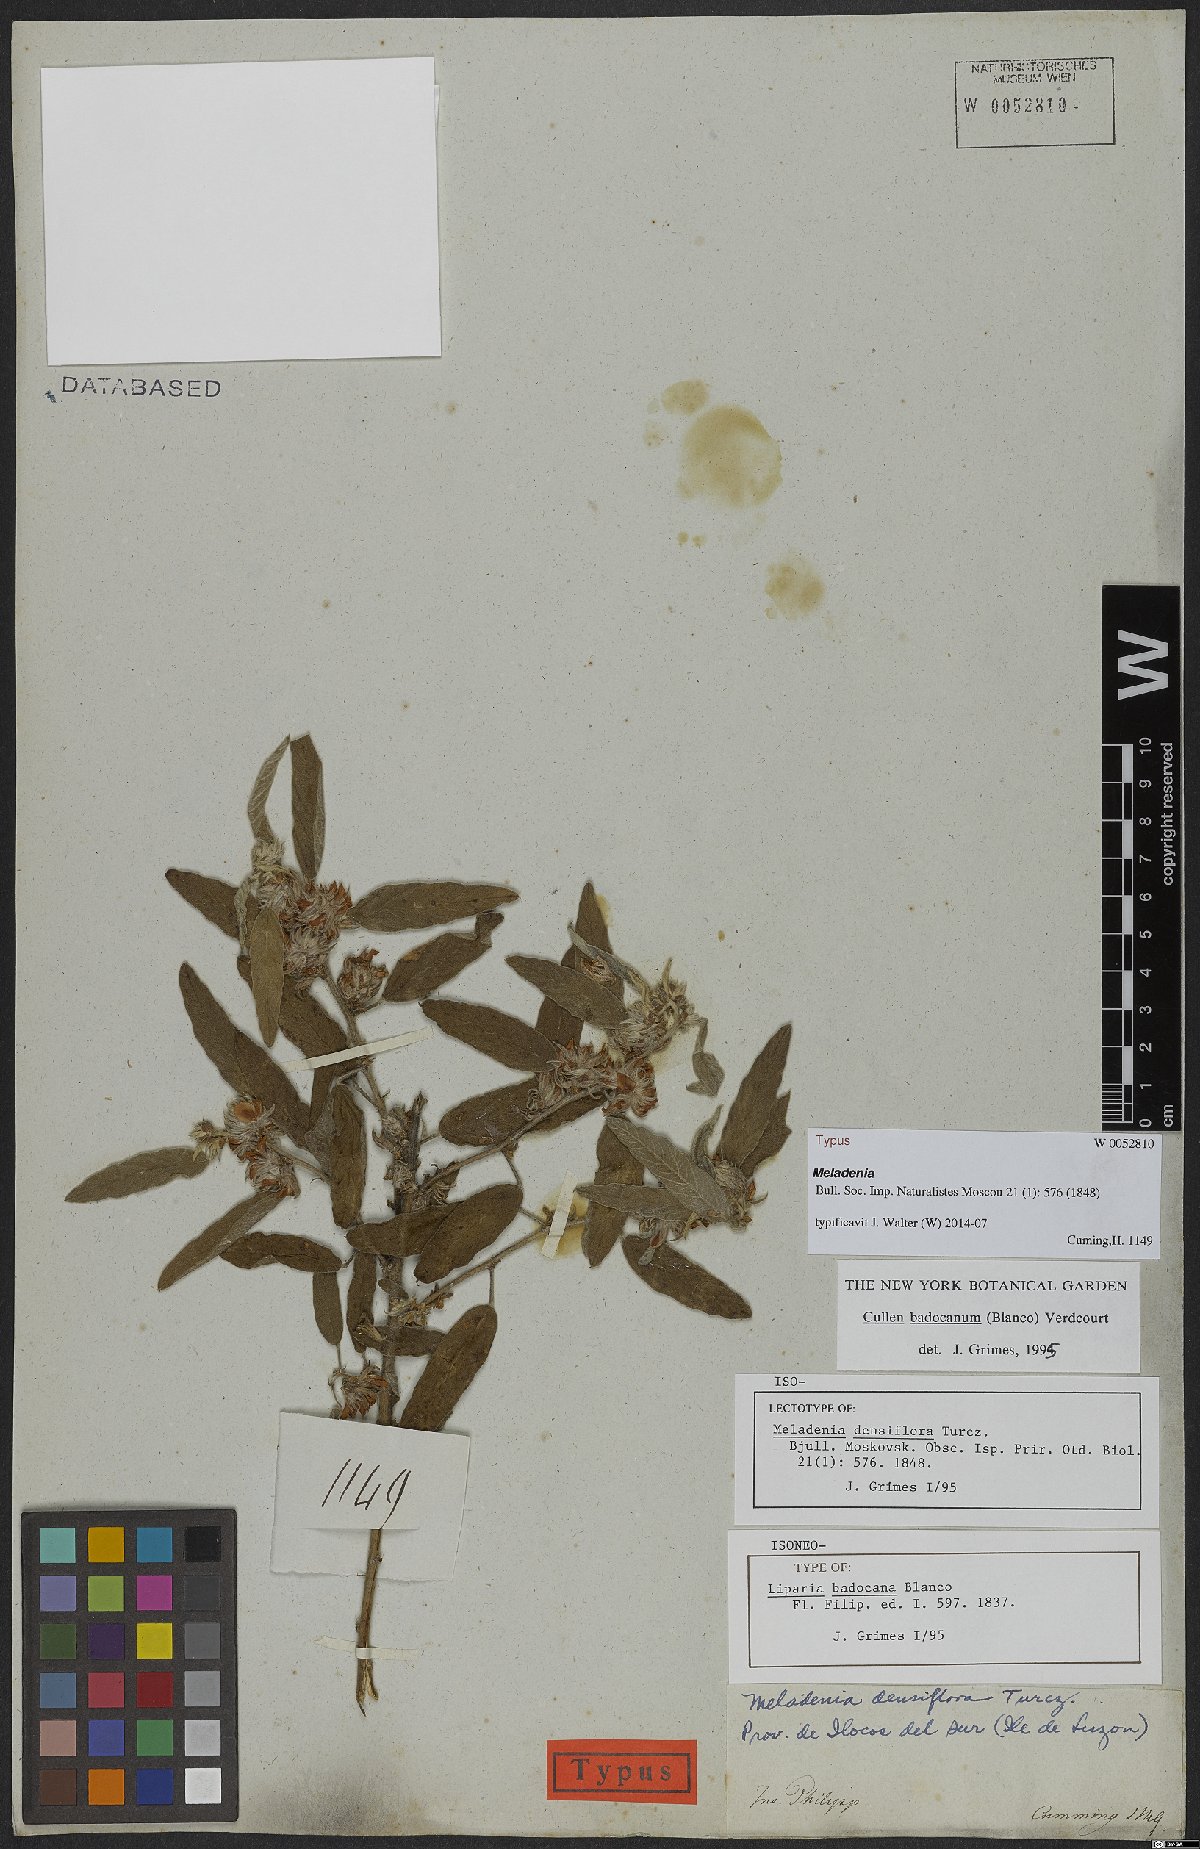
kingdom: Plantae
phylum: Tracheophyta
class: Magnoliopsida
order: Fabales
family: Fabaceae
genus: Cullen
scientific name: Cullen badocanum
